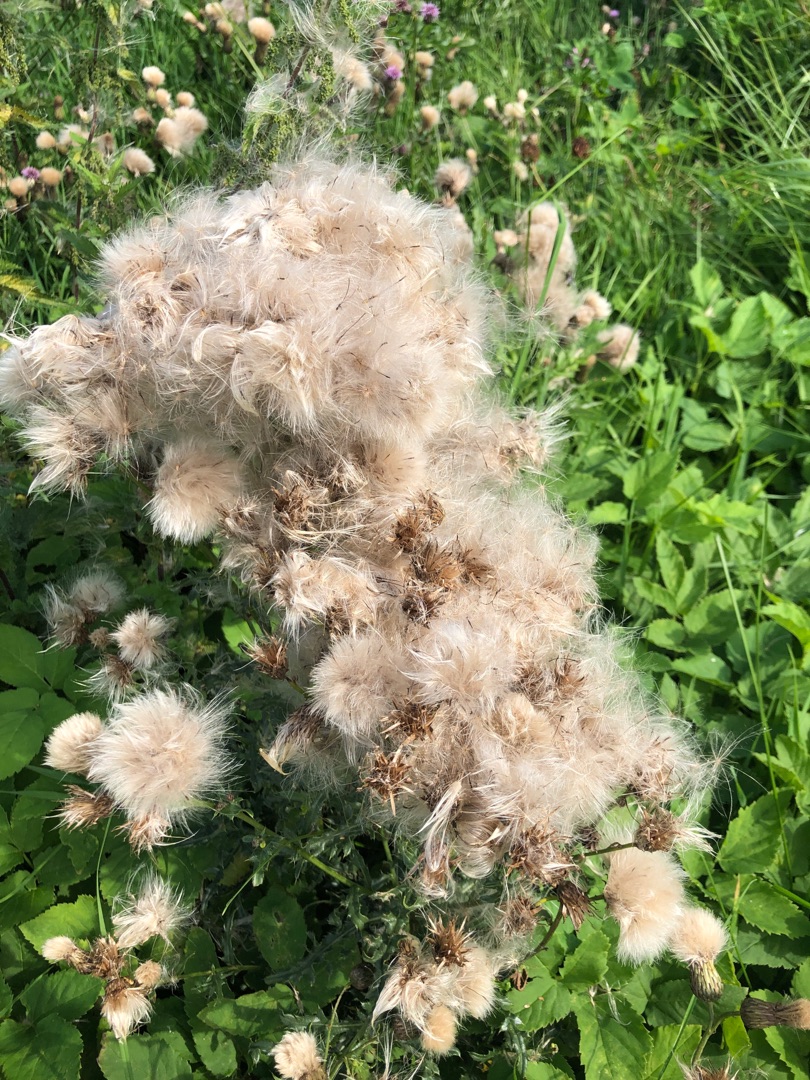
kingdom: Plantae
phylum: Tracheophyta
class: Magnoliopsida
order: Asterales
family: Asteraceae
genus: Cirsium
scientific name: Cirsium arvense
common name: Ager-tidsel
